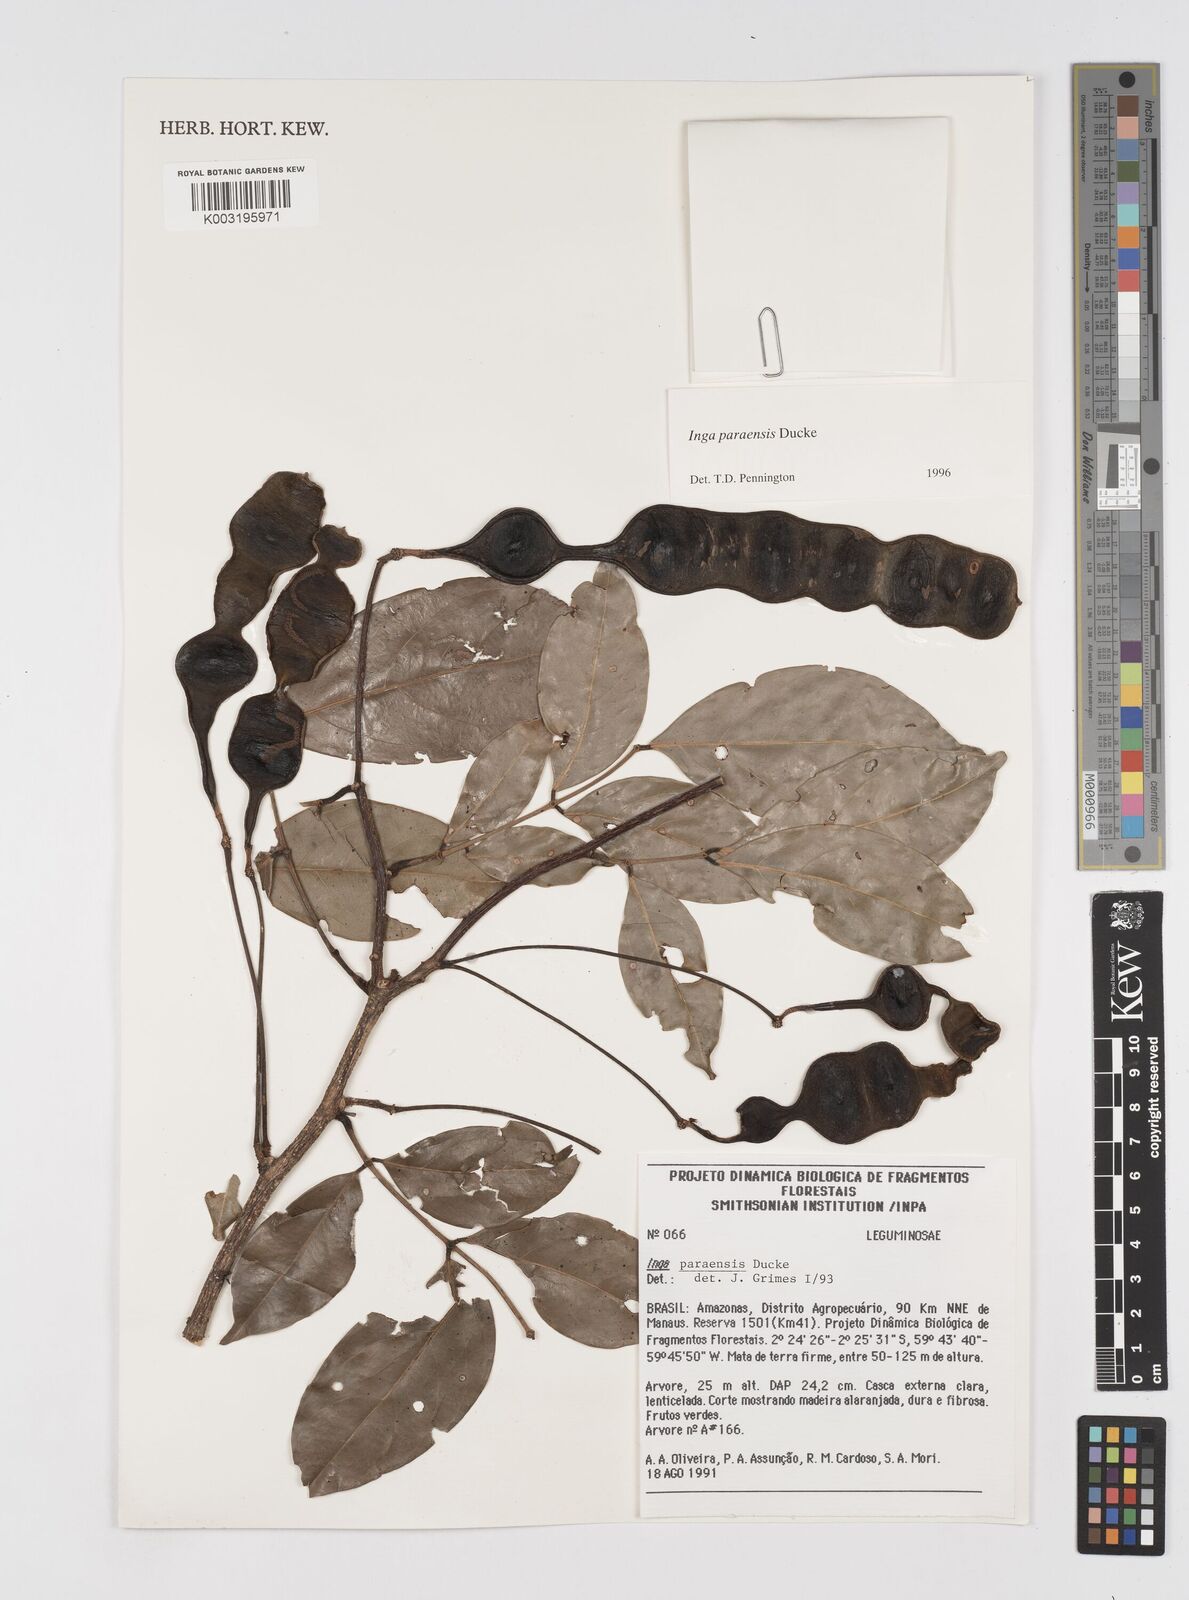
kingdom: Plantae
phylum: Tracheophyta
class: Magnoliopsida
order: Fabales
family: Fabaceae
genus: Inga
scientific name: Inga paraensis
